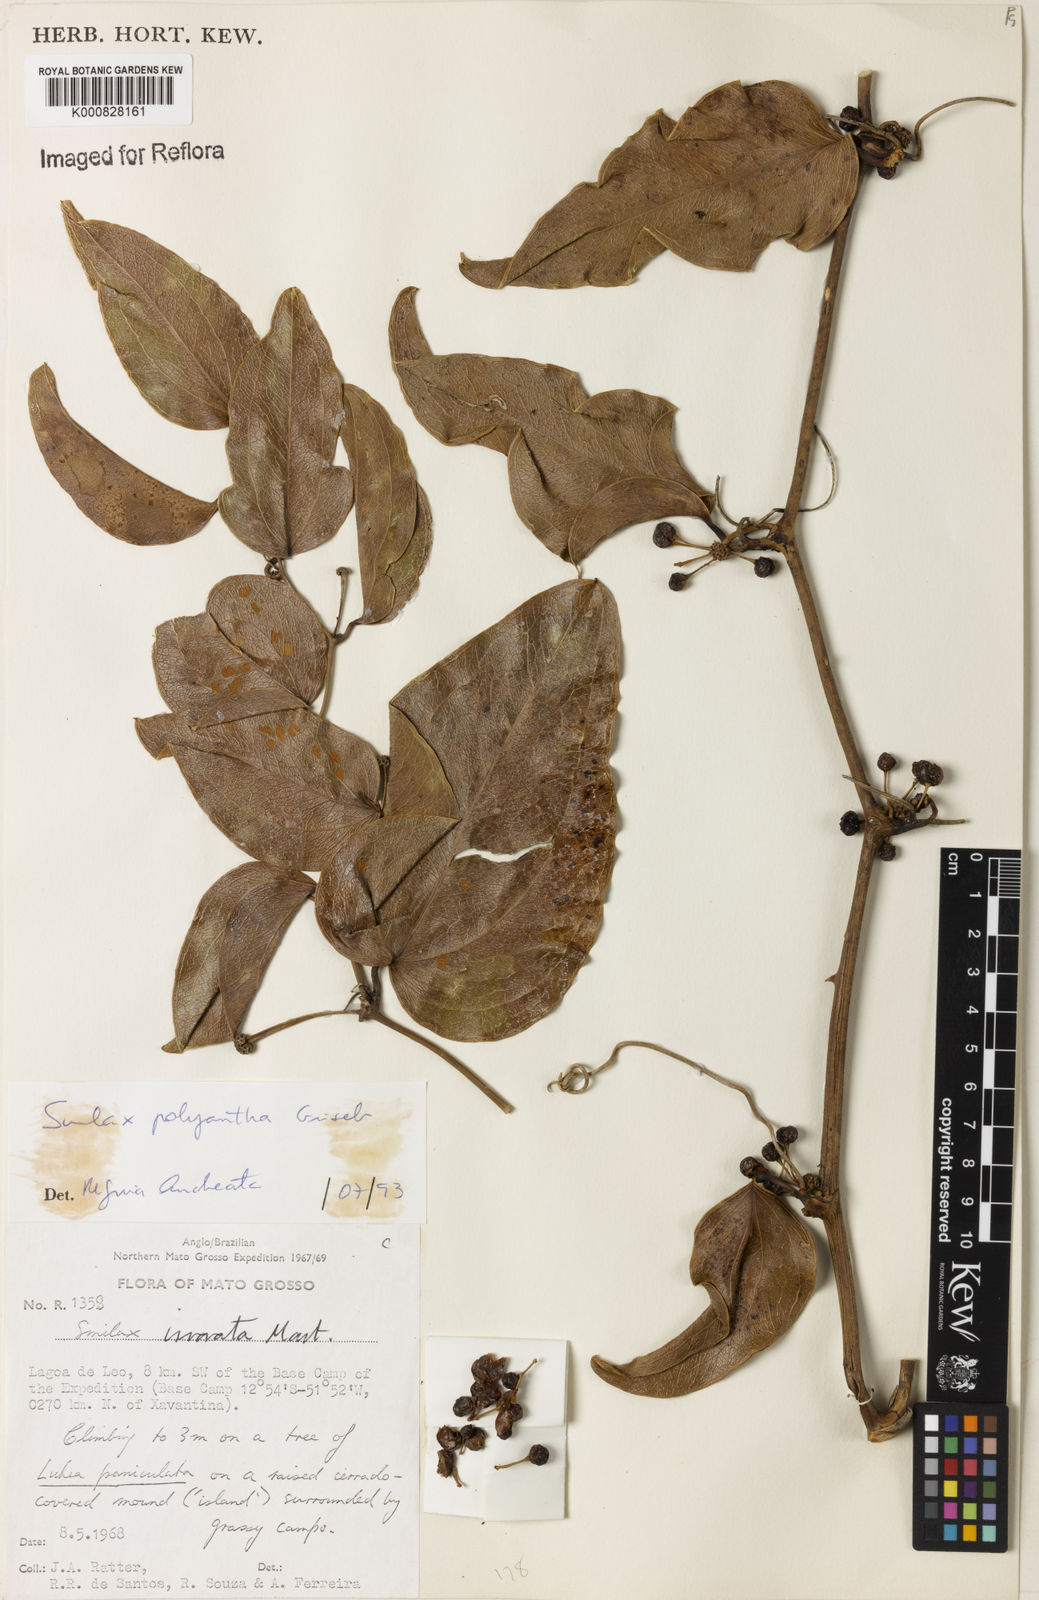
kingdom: Plantae
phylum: Tracheophyta
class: Liliopsida
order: Liliales
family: Smilacaceae
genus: Smilax
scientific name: Smilax polyantha
